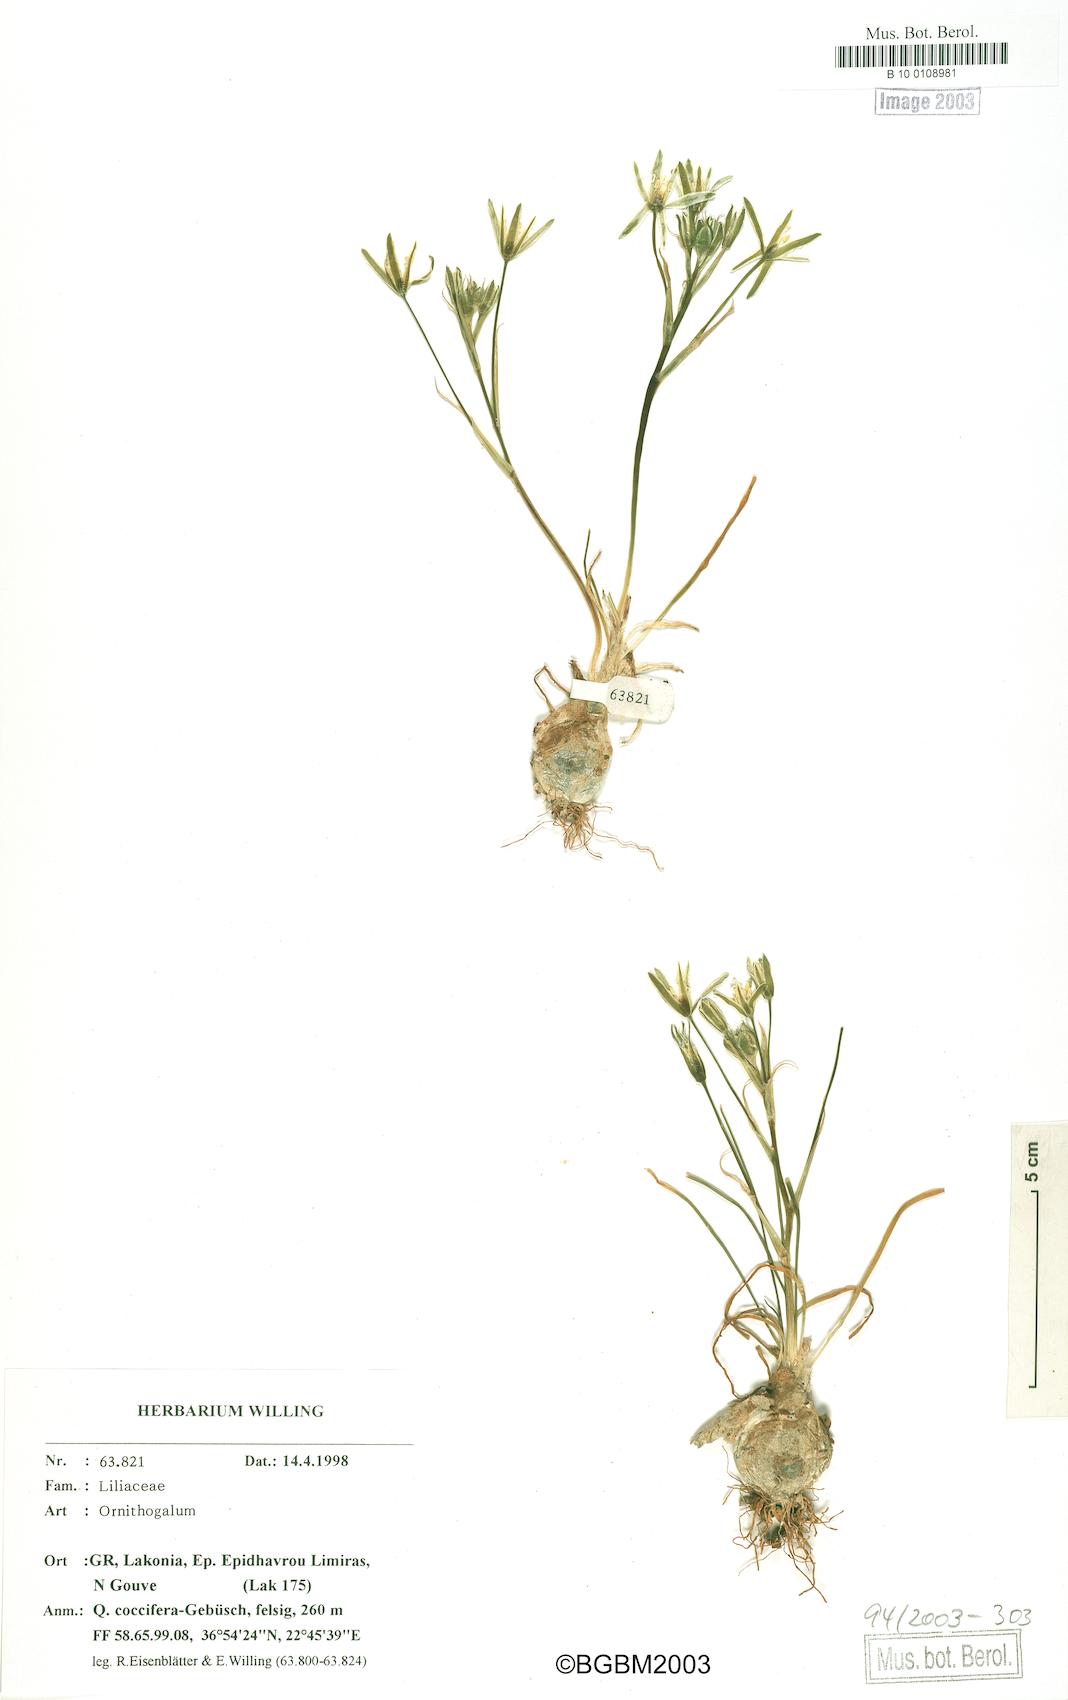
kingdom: Plantae
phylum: Tracheophyta
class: Liliopsida
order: Asparagales
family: Asparagaceae
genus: Ornithogalum
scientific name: Ornithogalum
